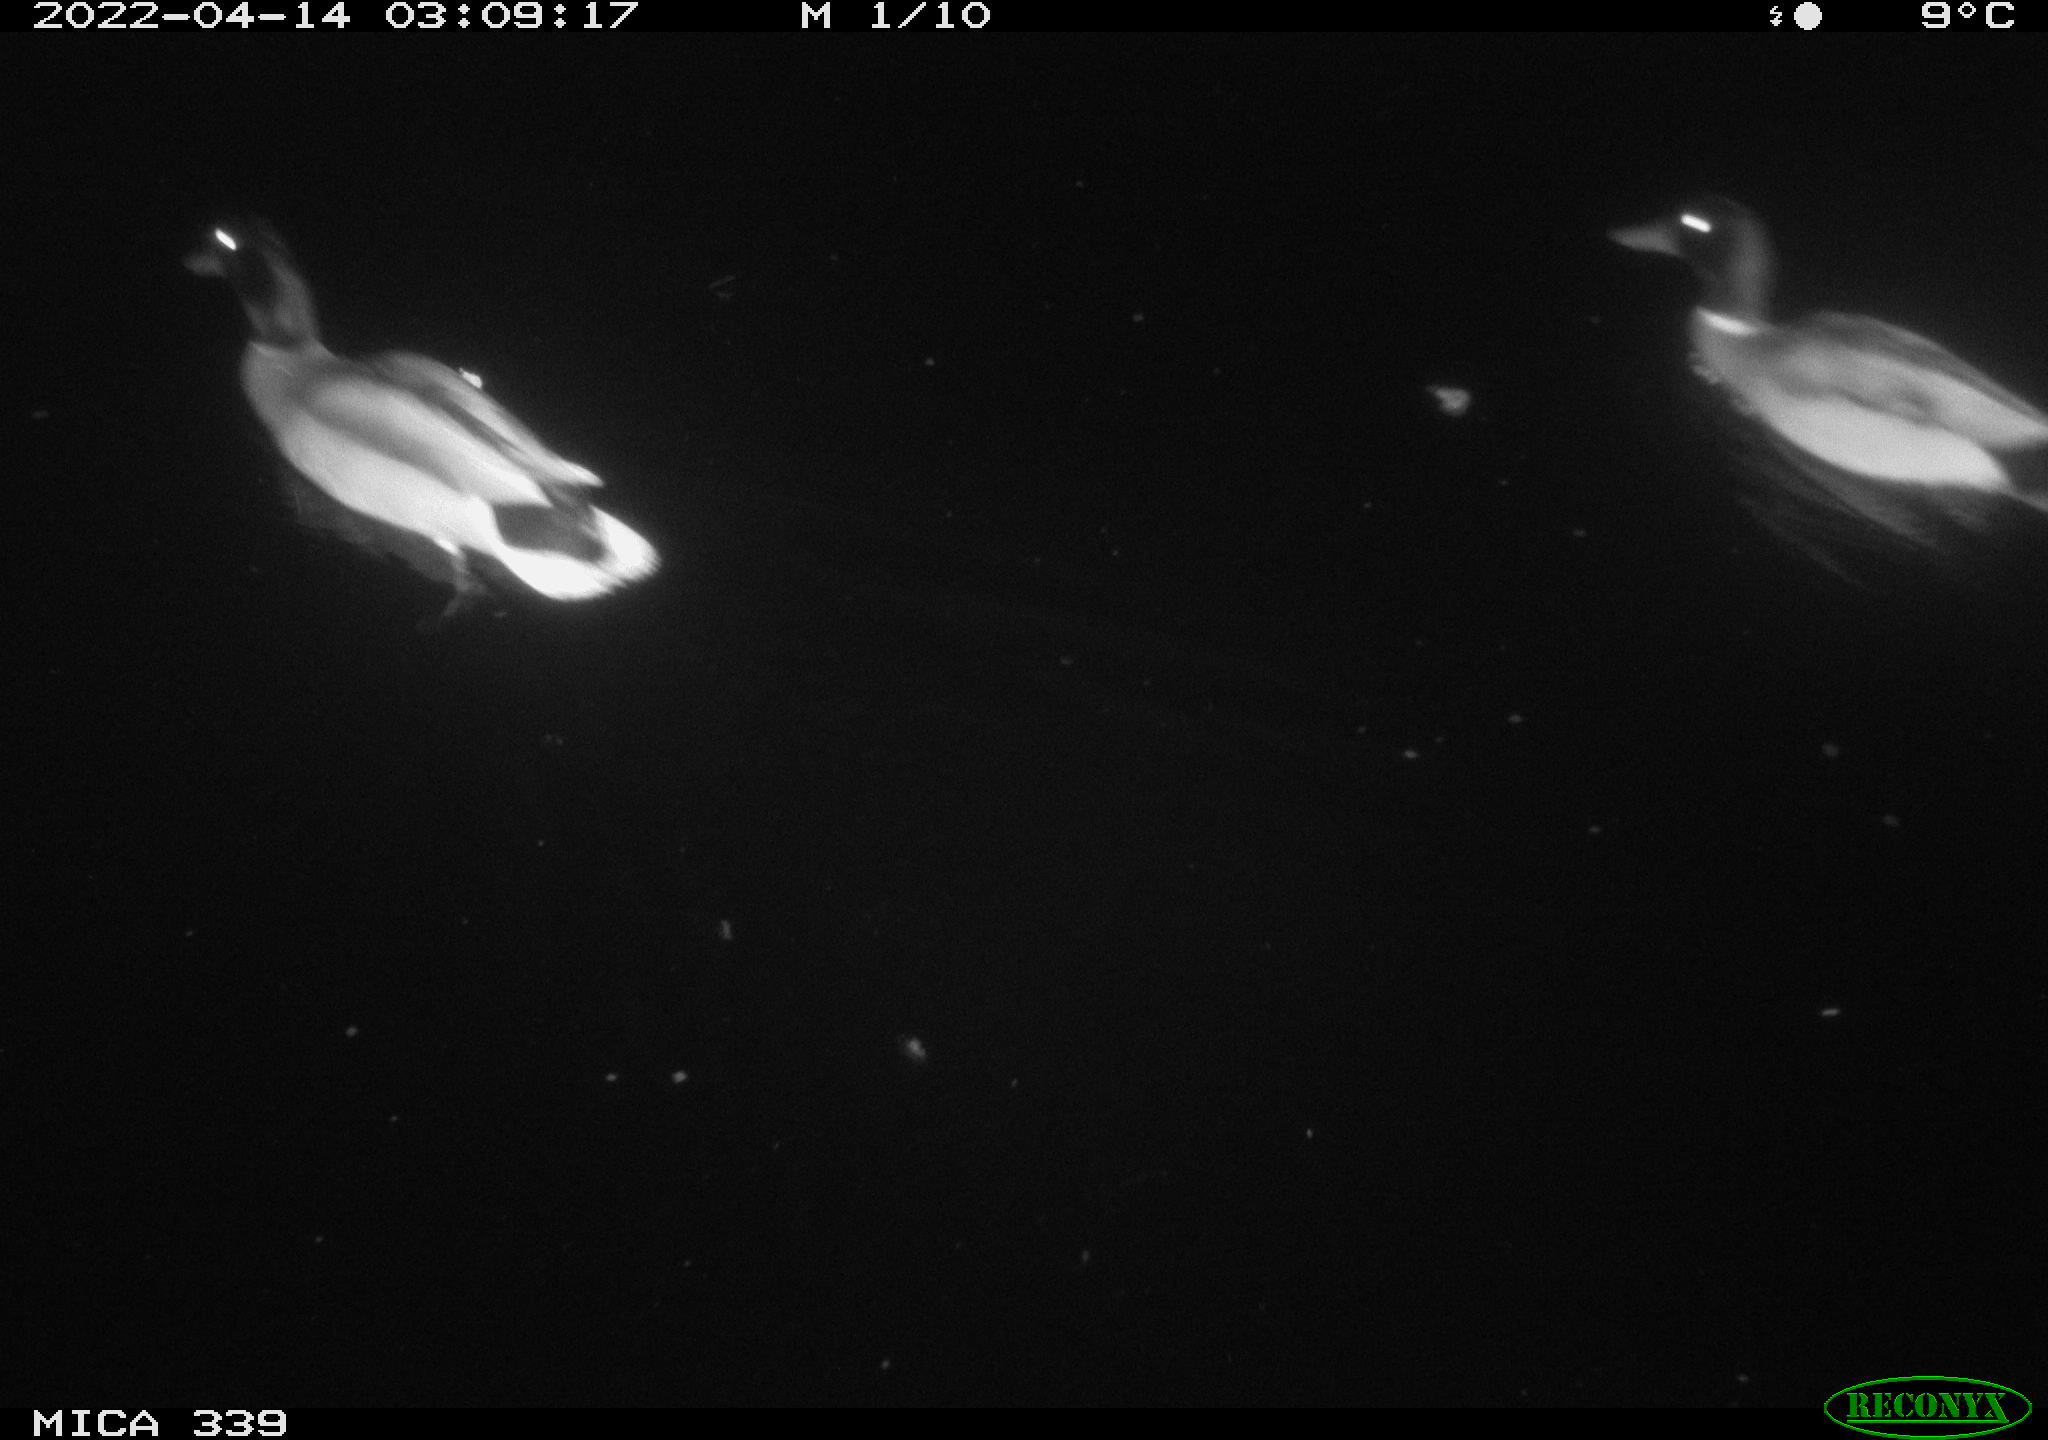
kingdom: Animalia
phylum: Chordata
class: Aves
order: Anseriformes
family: Anatidae
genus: Anas
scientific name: Anas platyrhynchos
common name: Mallard
